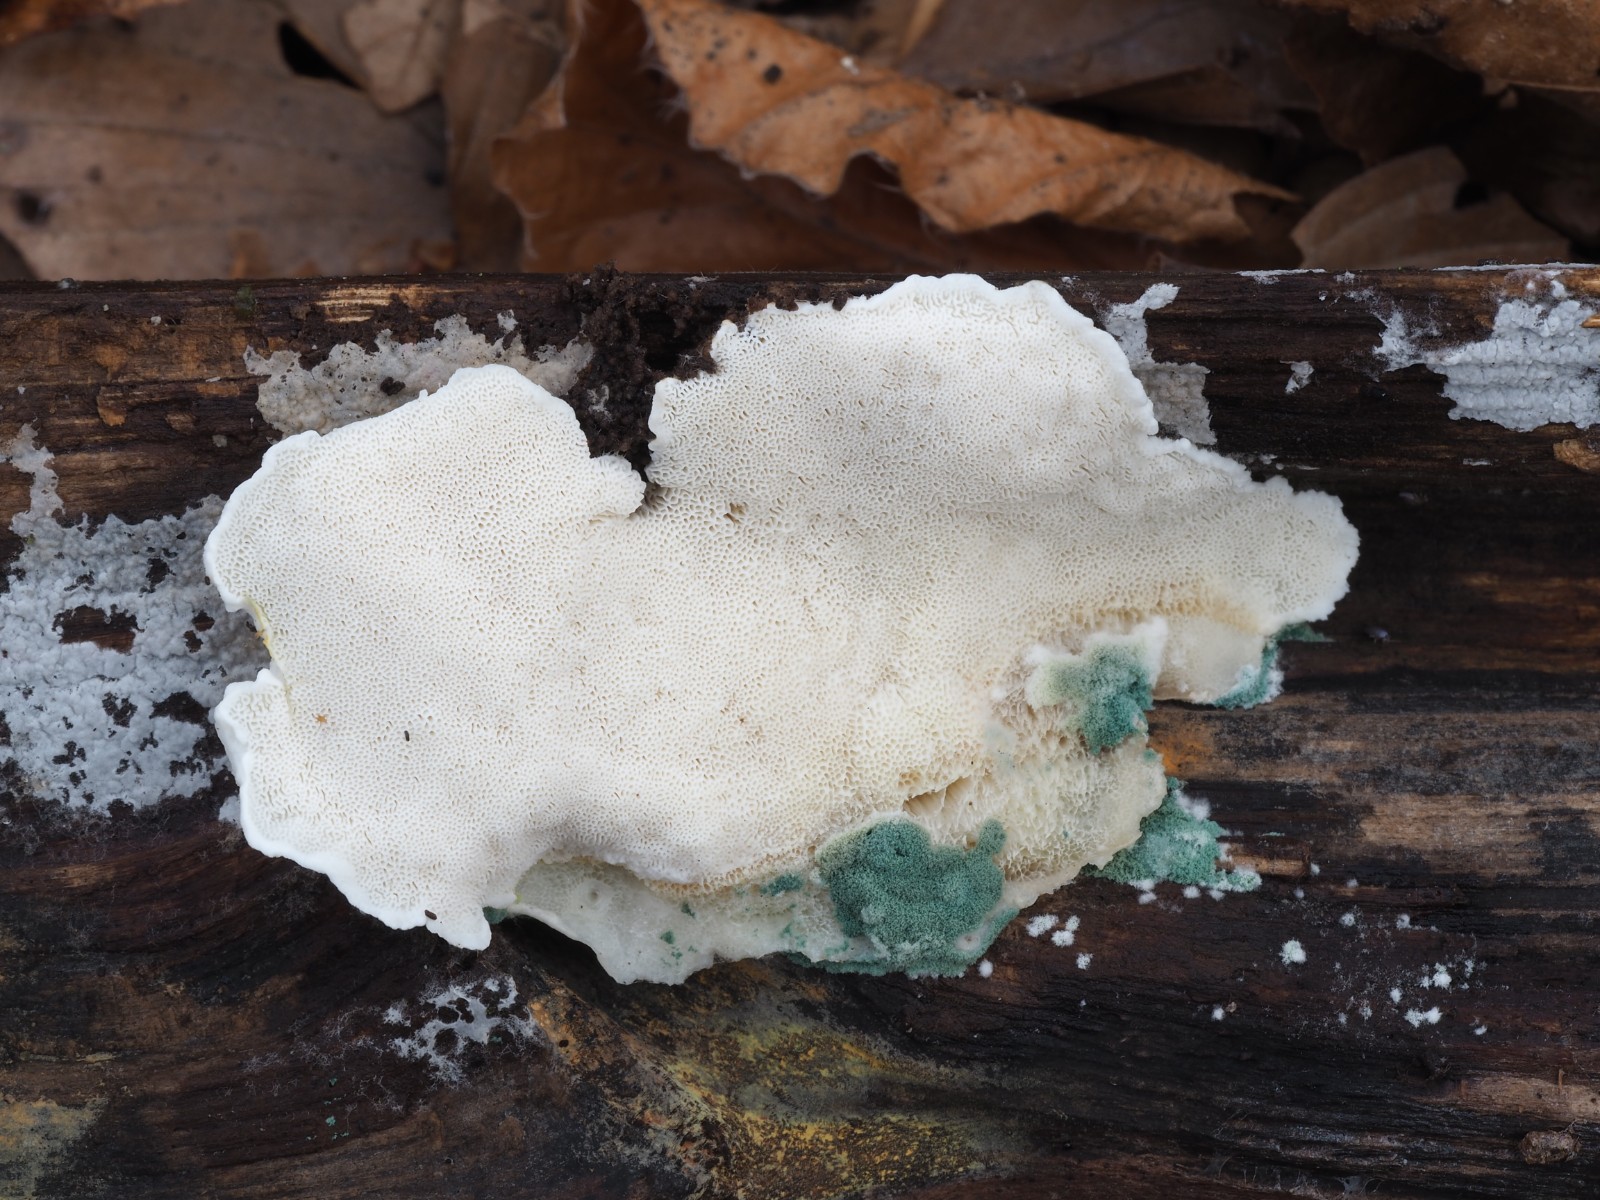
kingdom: Fungi
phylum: Basidiomycota
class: Agaricomycetes
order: Polyporales
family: Dacryobolaceae
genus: Postia
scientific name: Postia tephroleuca
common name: grålig kødporesvamp
